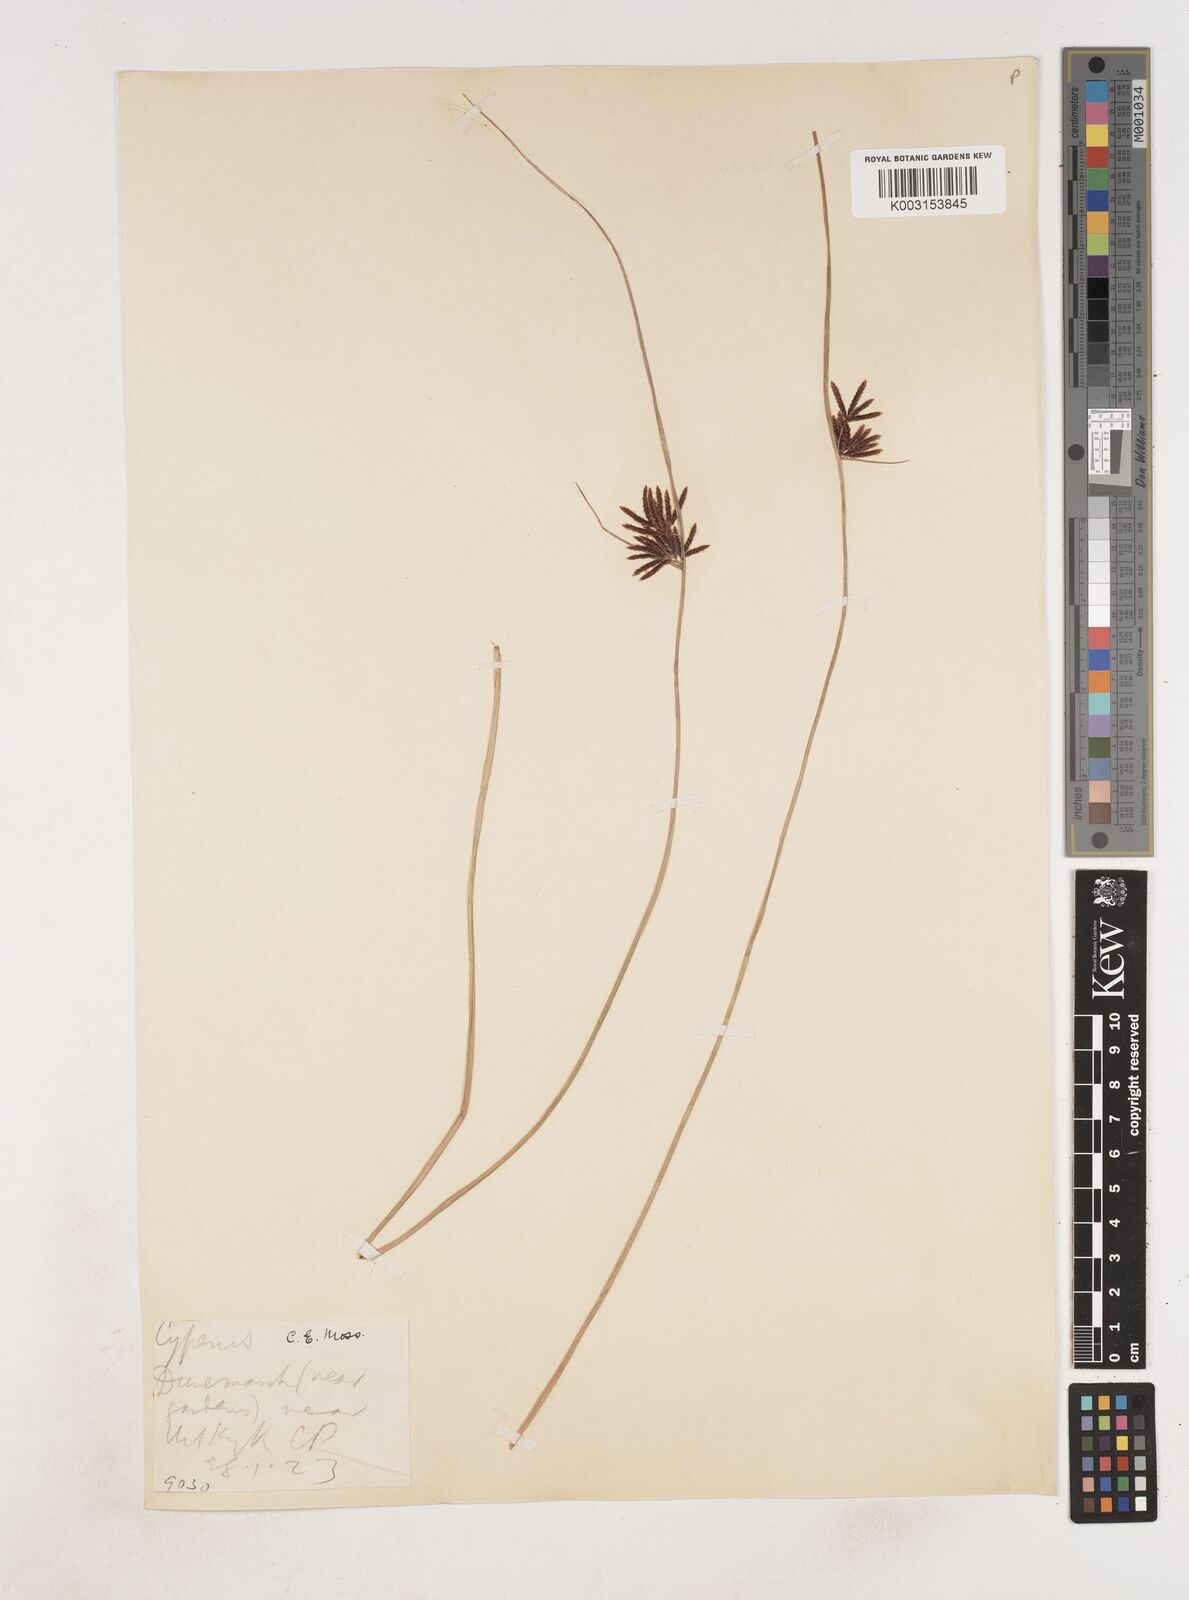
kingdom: Plantae
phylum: Tracheophyta
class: Liliopsida
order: Poales
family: Cyperaceae
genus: Cyperus
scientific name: Cyperus
